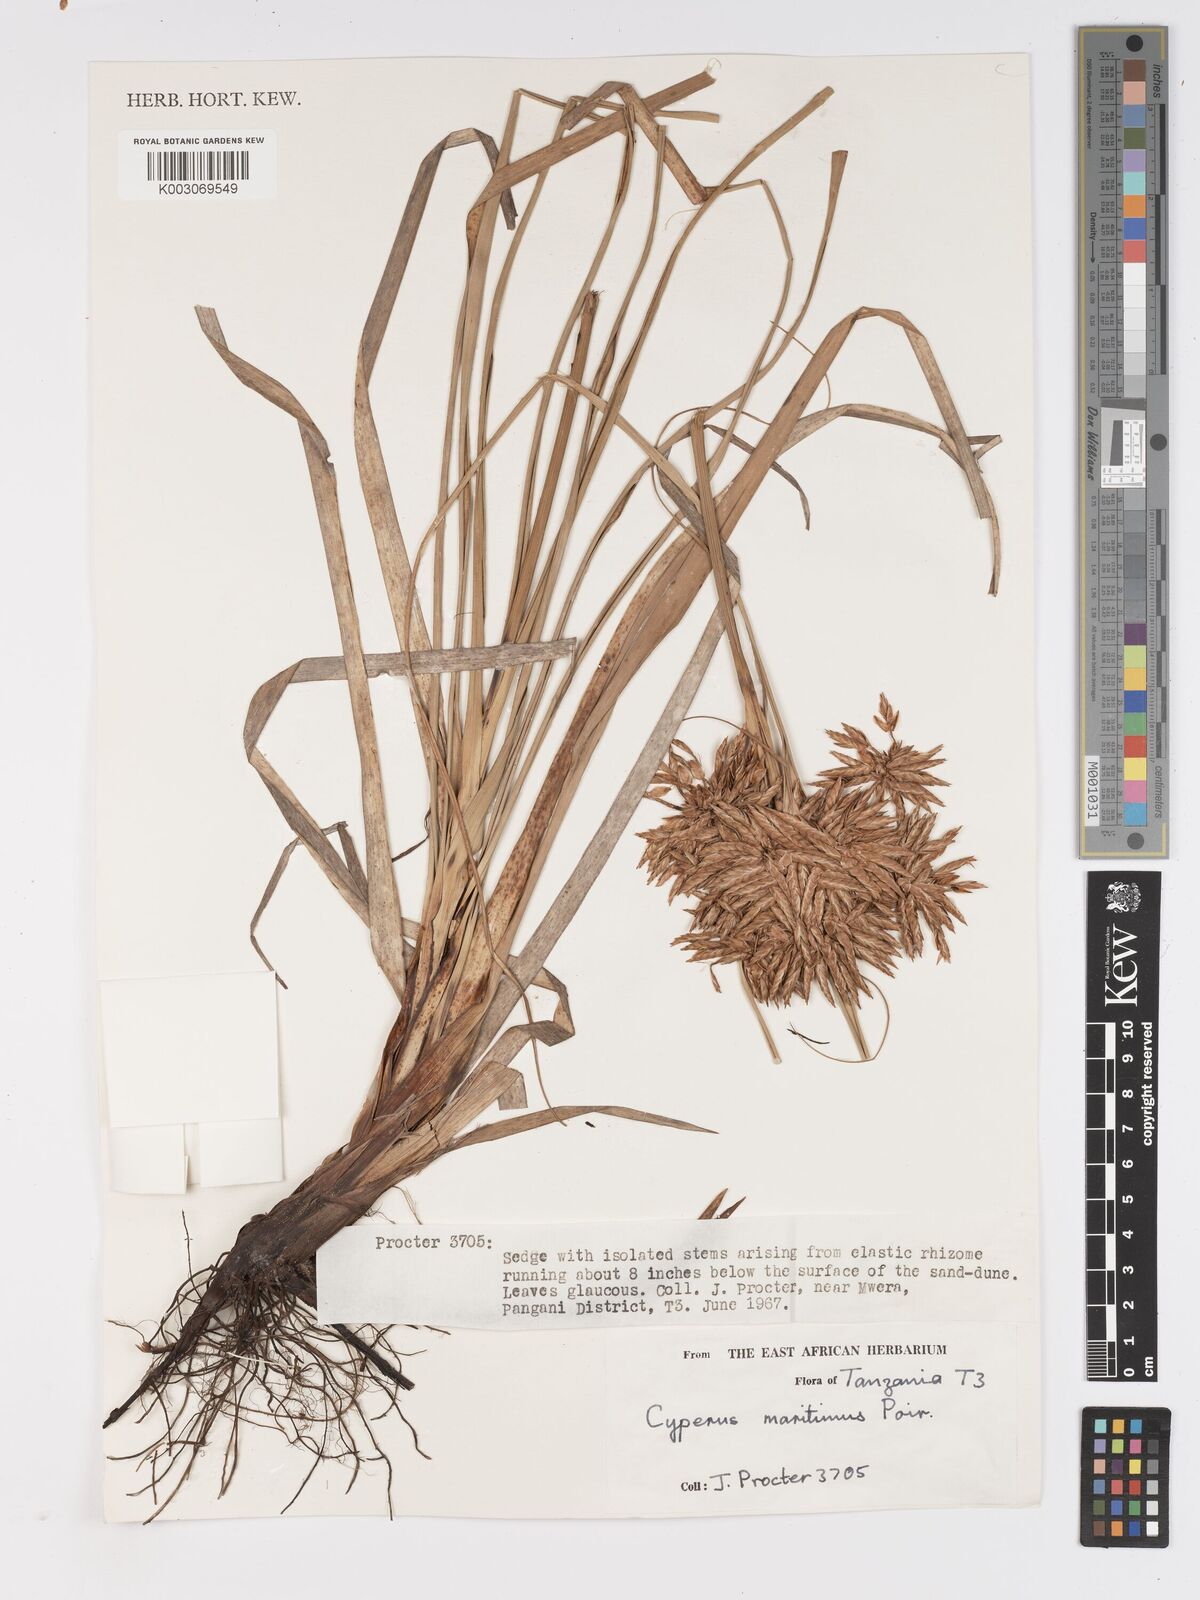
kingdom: Plantae
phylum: Tracheophyta
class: Liliopsida
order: Poales
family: Cyperaceae
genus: Cyperus
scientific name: Cyperus crassipes
